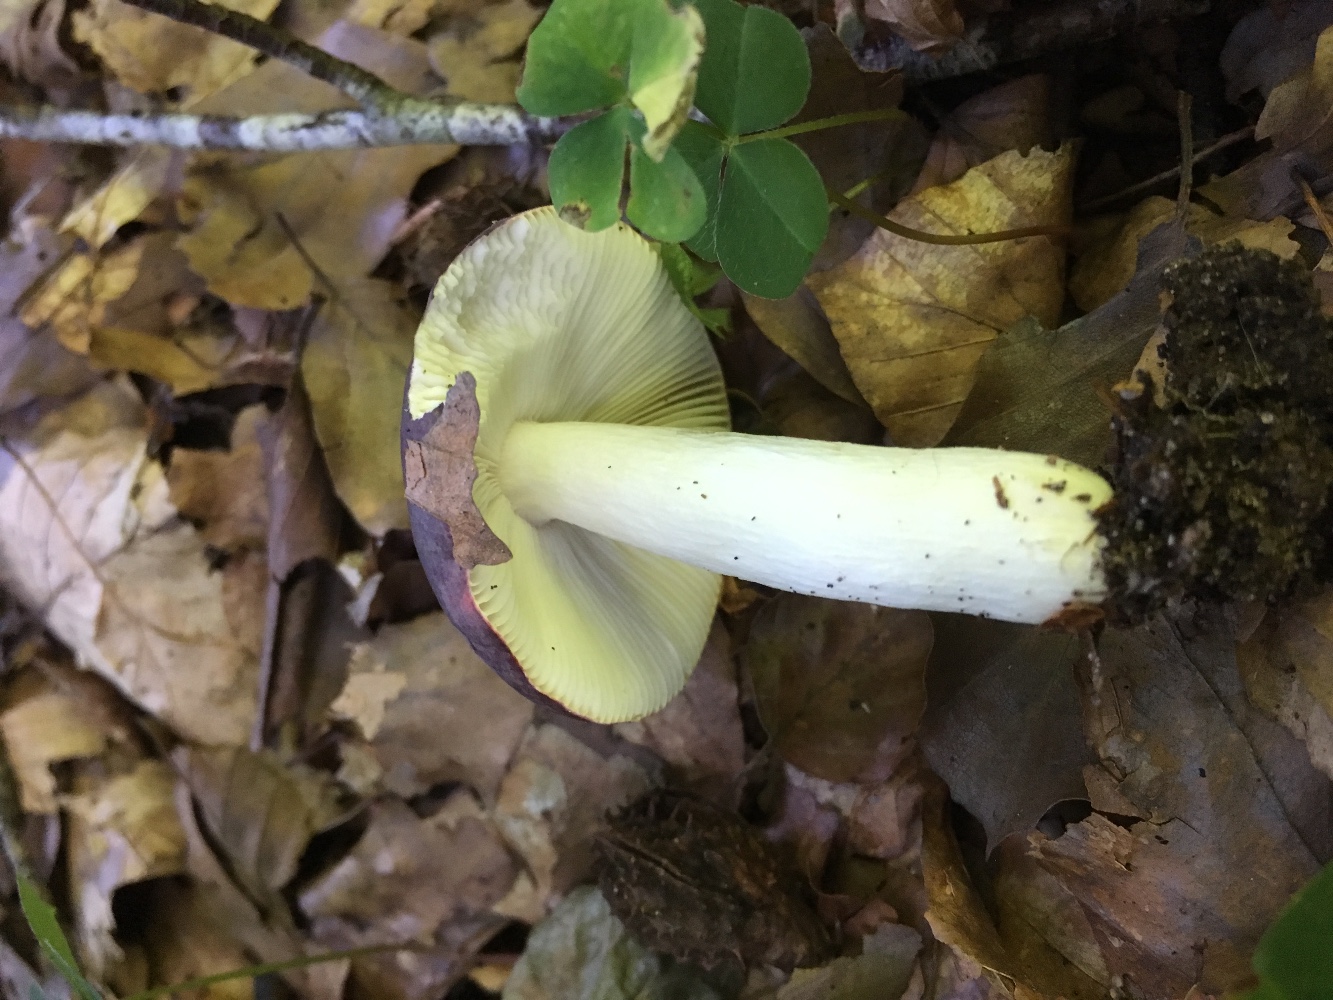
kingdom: Fungi
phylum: Basidiomycota
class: Agaricomycetes
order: Russulales
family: Russulaceae
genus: Russula
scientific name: Russula brunneoviolacea
